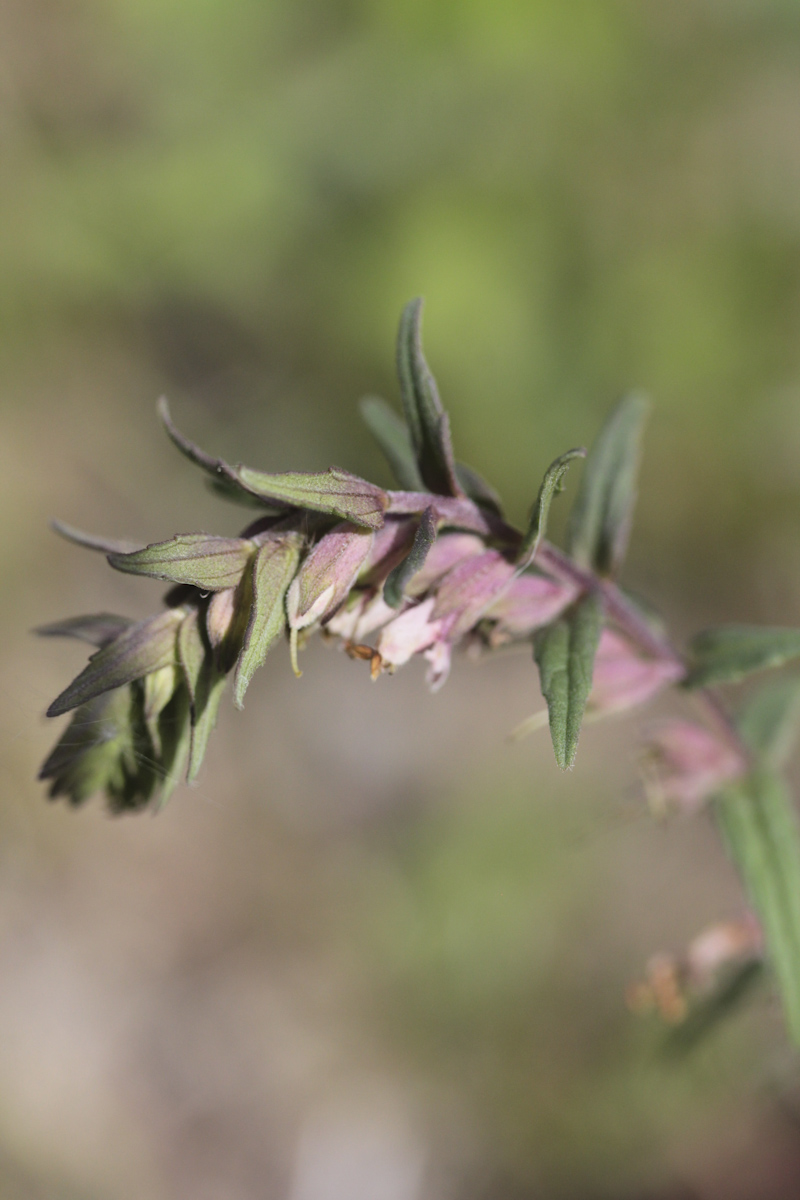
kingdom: Plantae
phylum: Tracheophyta
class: Magnoliopsida
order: Lamiales
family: Orobanchaceae
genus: Odontites
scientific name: Odontites vulgaris
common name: Broomrape
